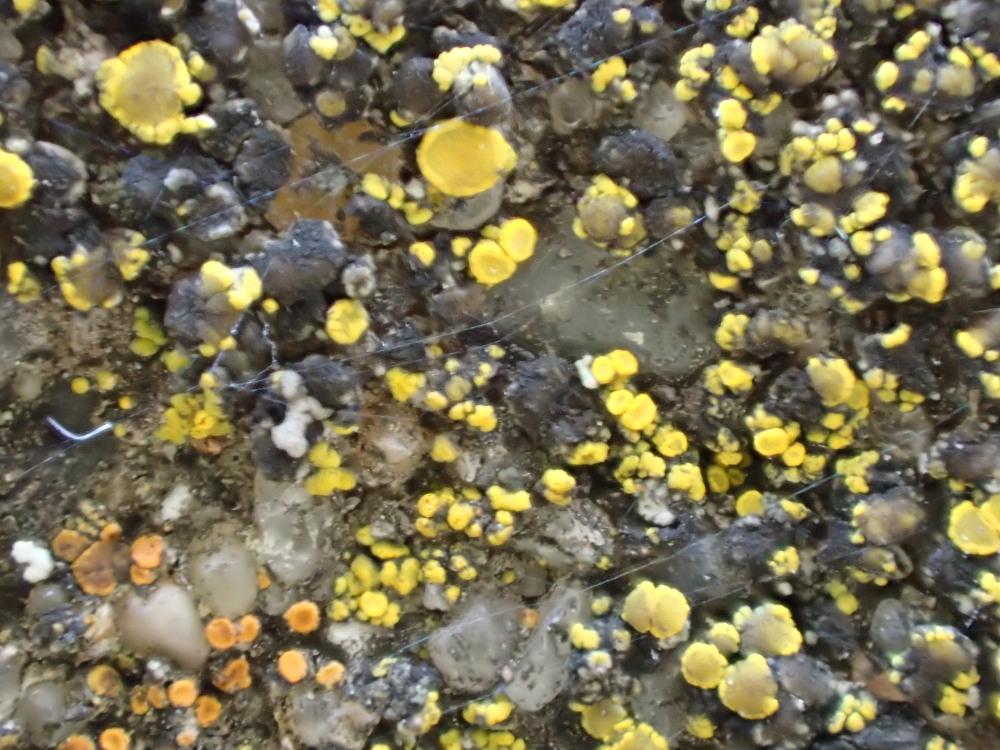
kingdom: Fungi
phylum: Ascomycota
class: Candelariomycetes
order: Candelariales
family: Candelariaceae
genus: Candelariella
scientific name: Candelariella aurella
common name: liden æggeblommelav
